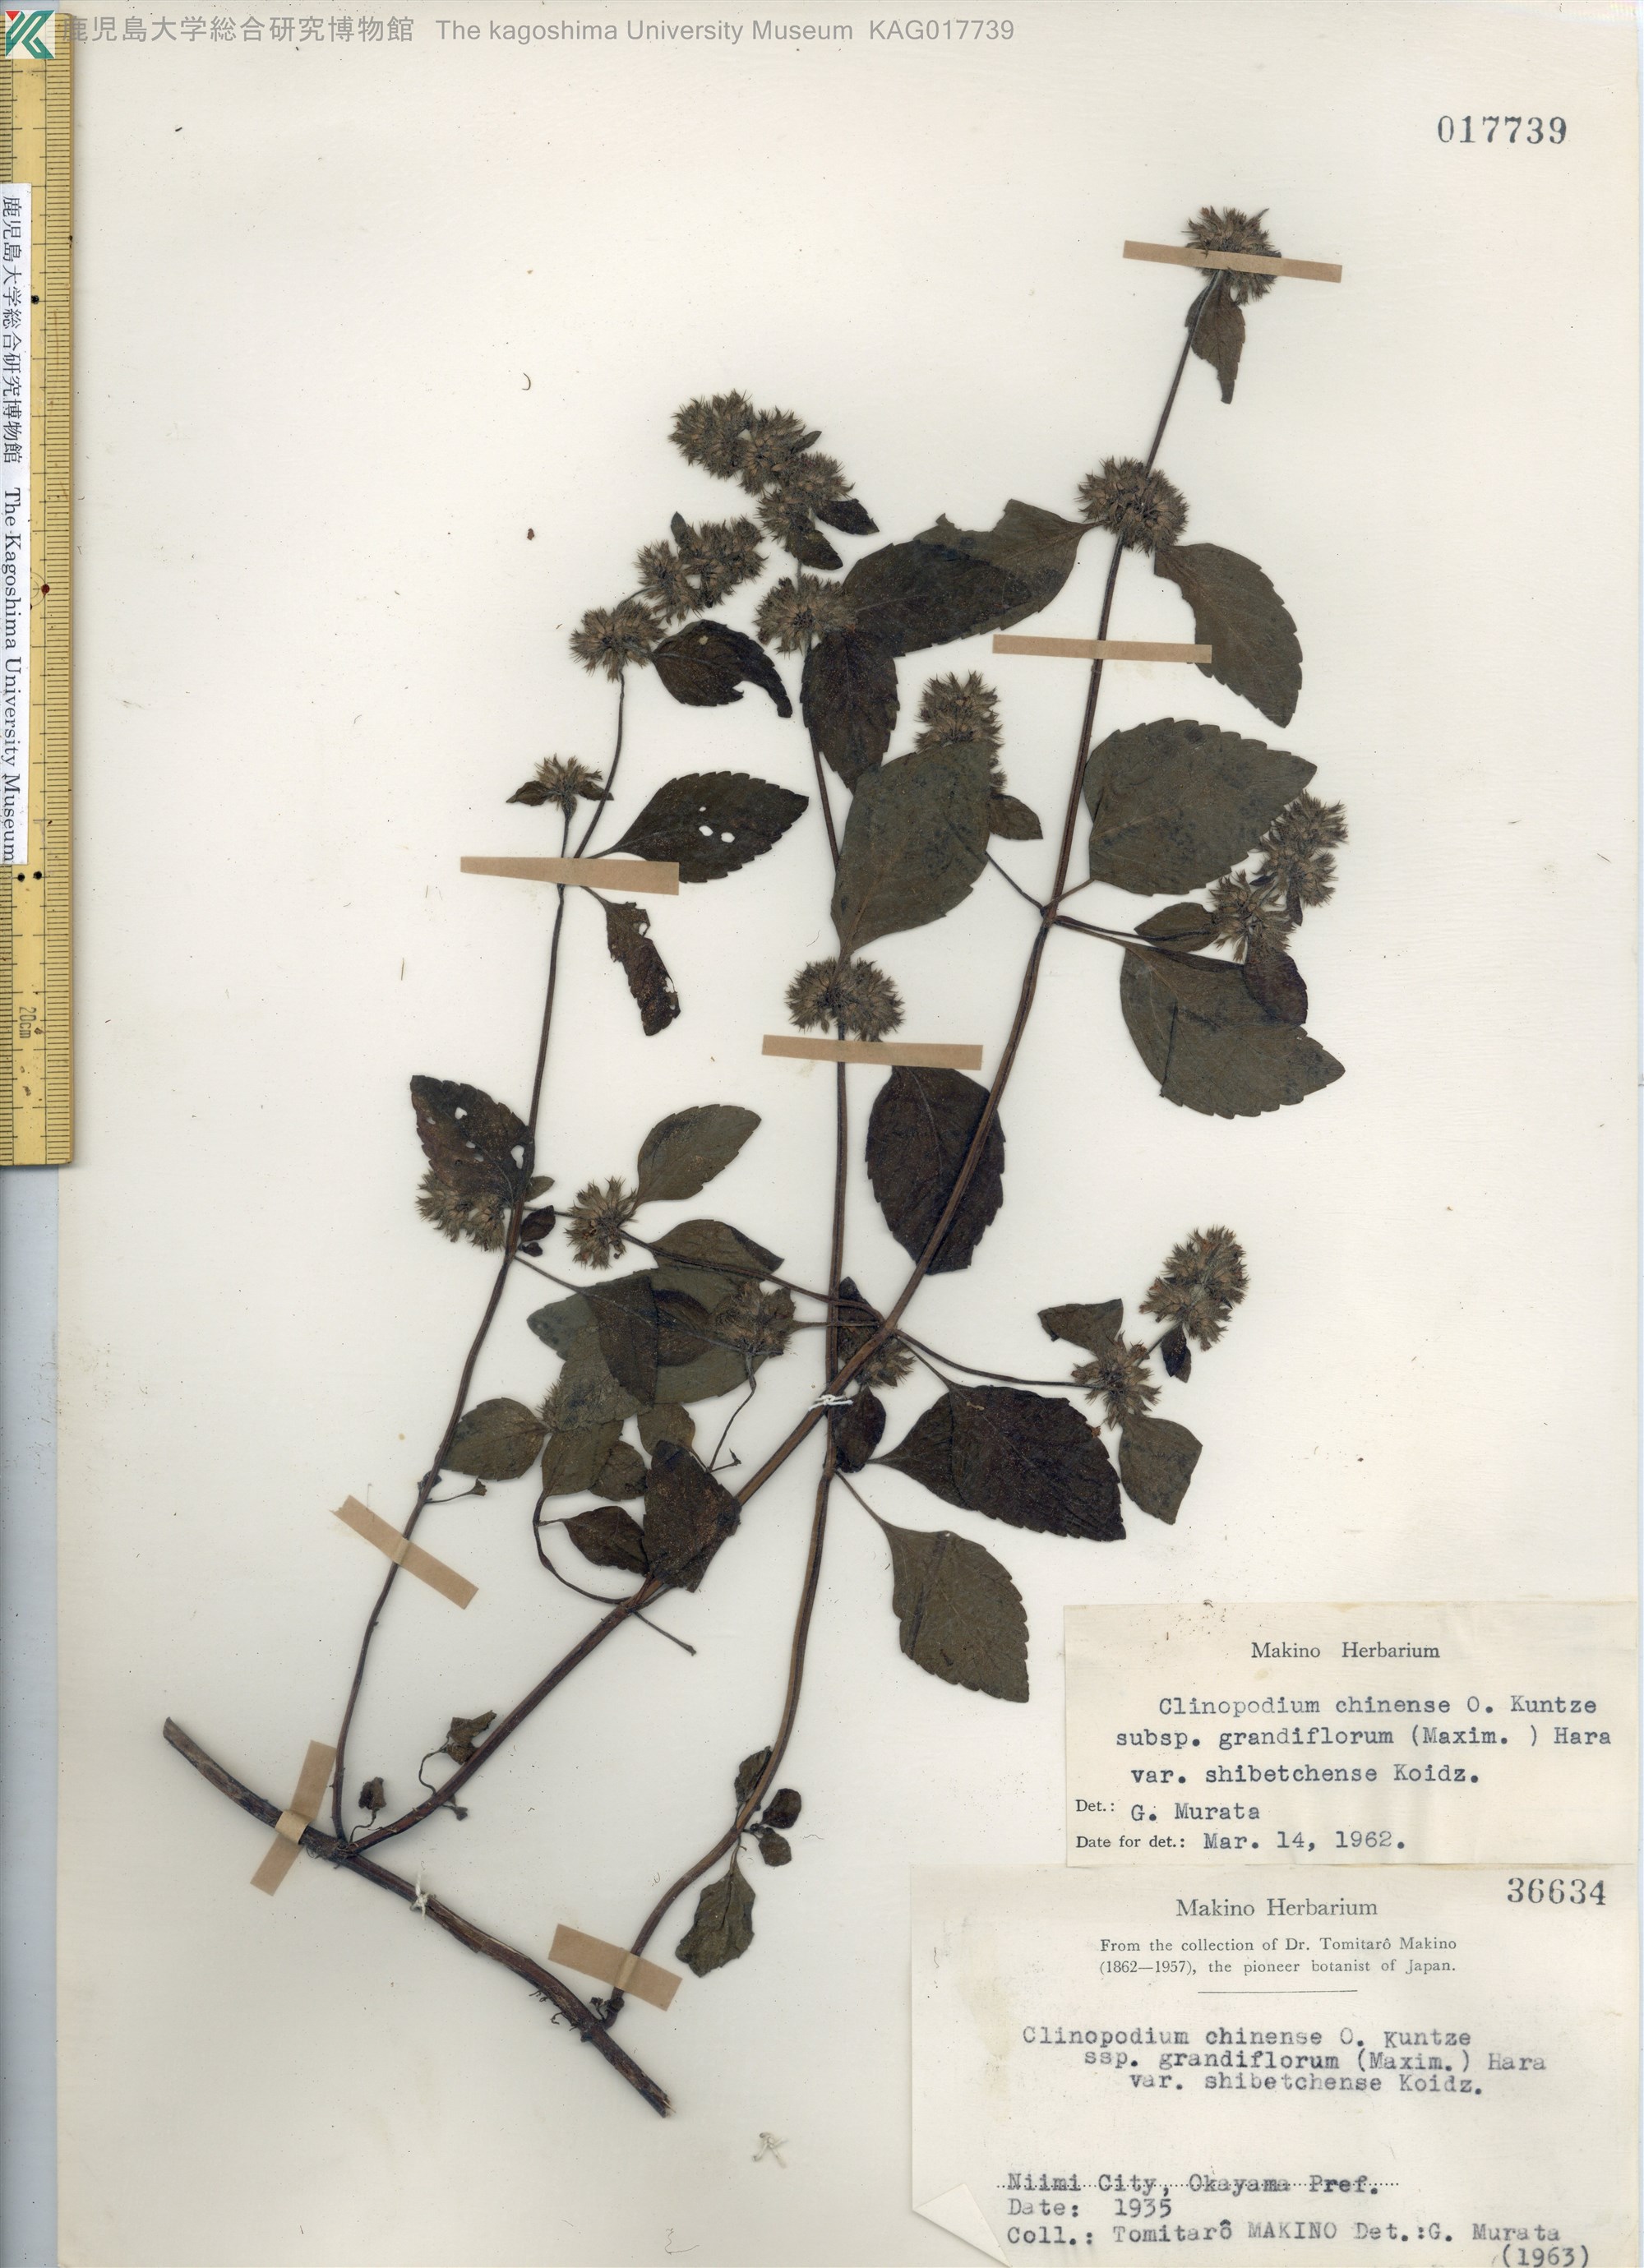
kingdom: Plantae
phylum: Tracheophyta
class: Magnoliopsida
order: Lamiales
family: Lamiaceae
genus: Clinopodium
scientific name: Clinopodium multicaule
